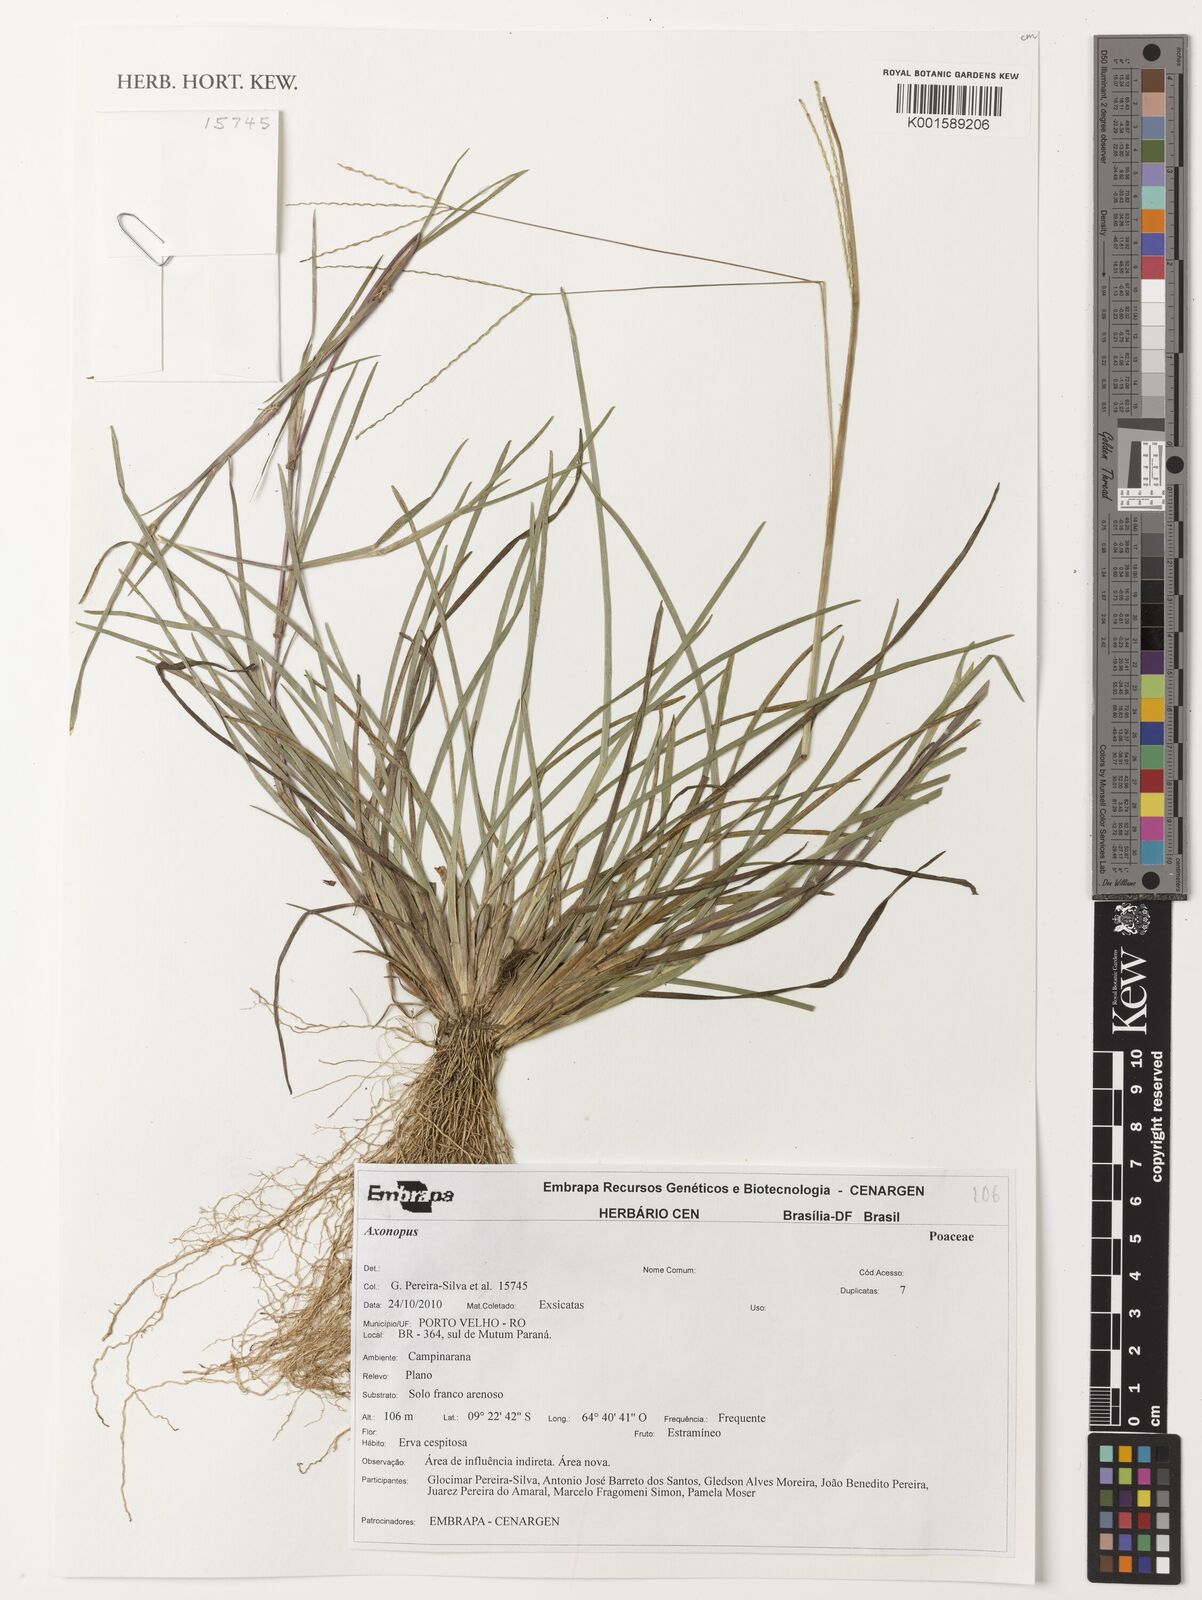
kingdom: Plantae
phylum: Tracheophyta
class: Liliopsida
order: Poales
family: Poaceae
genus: Axonopus
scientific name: Axonopus
